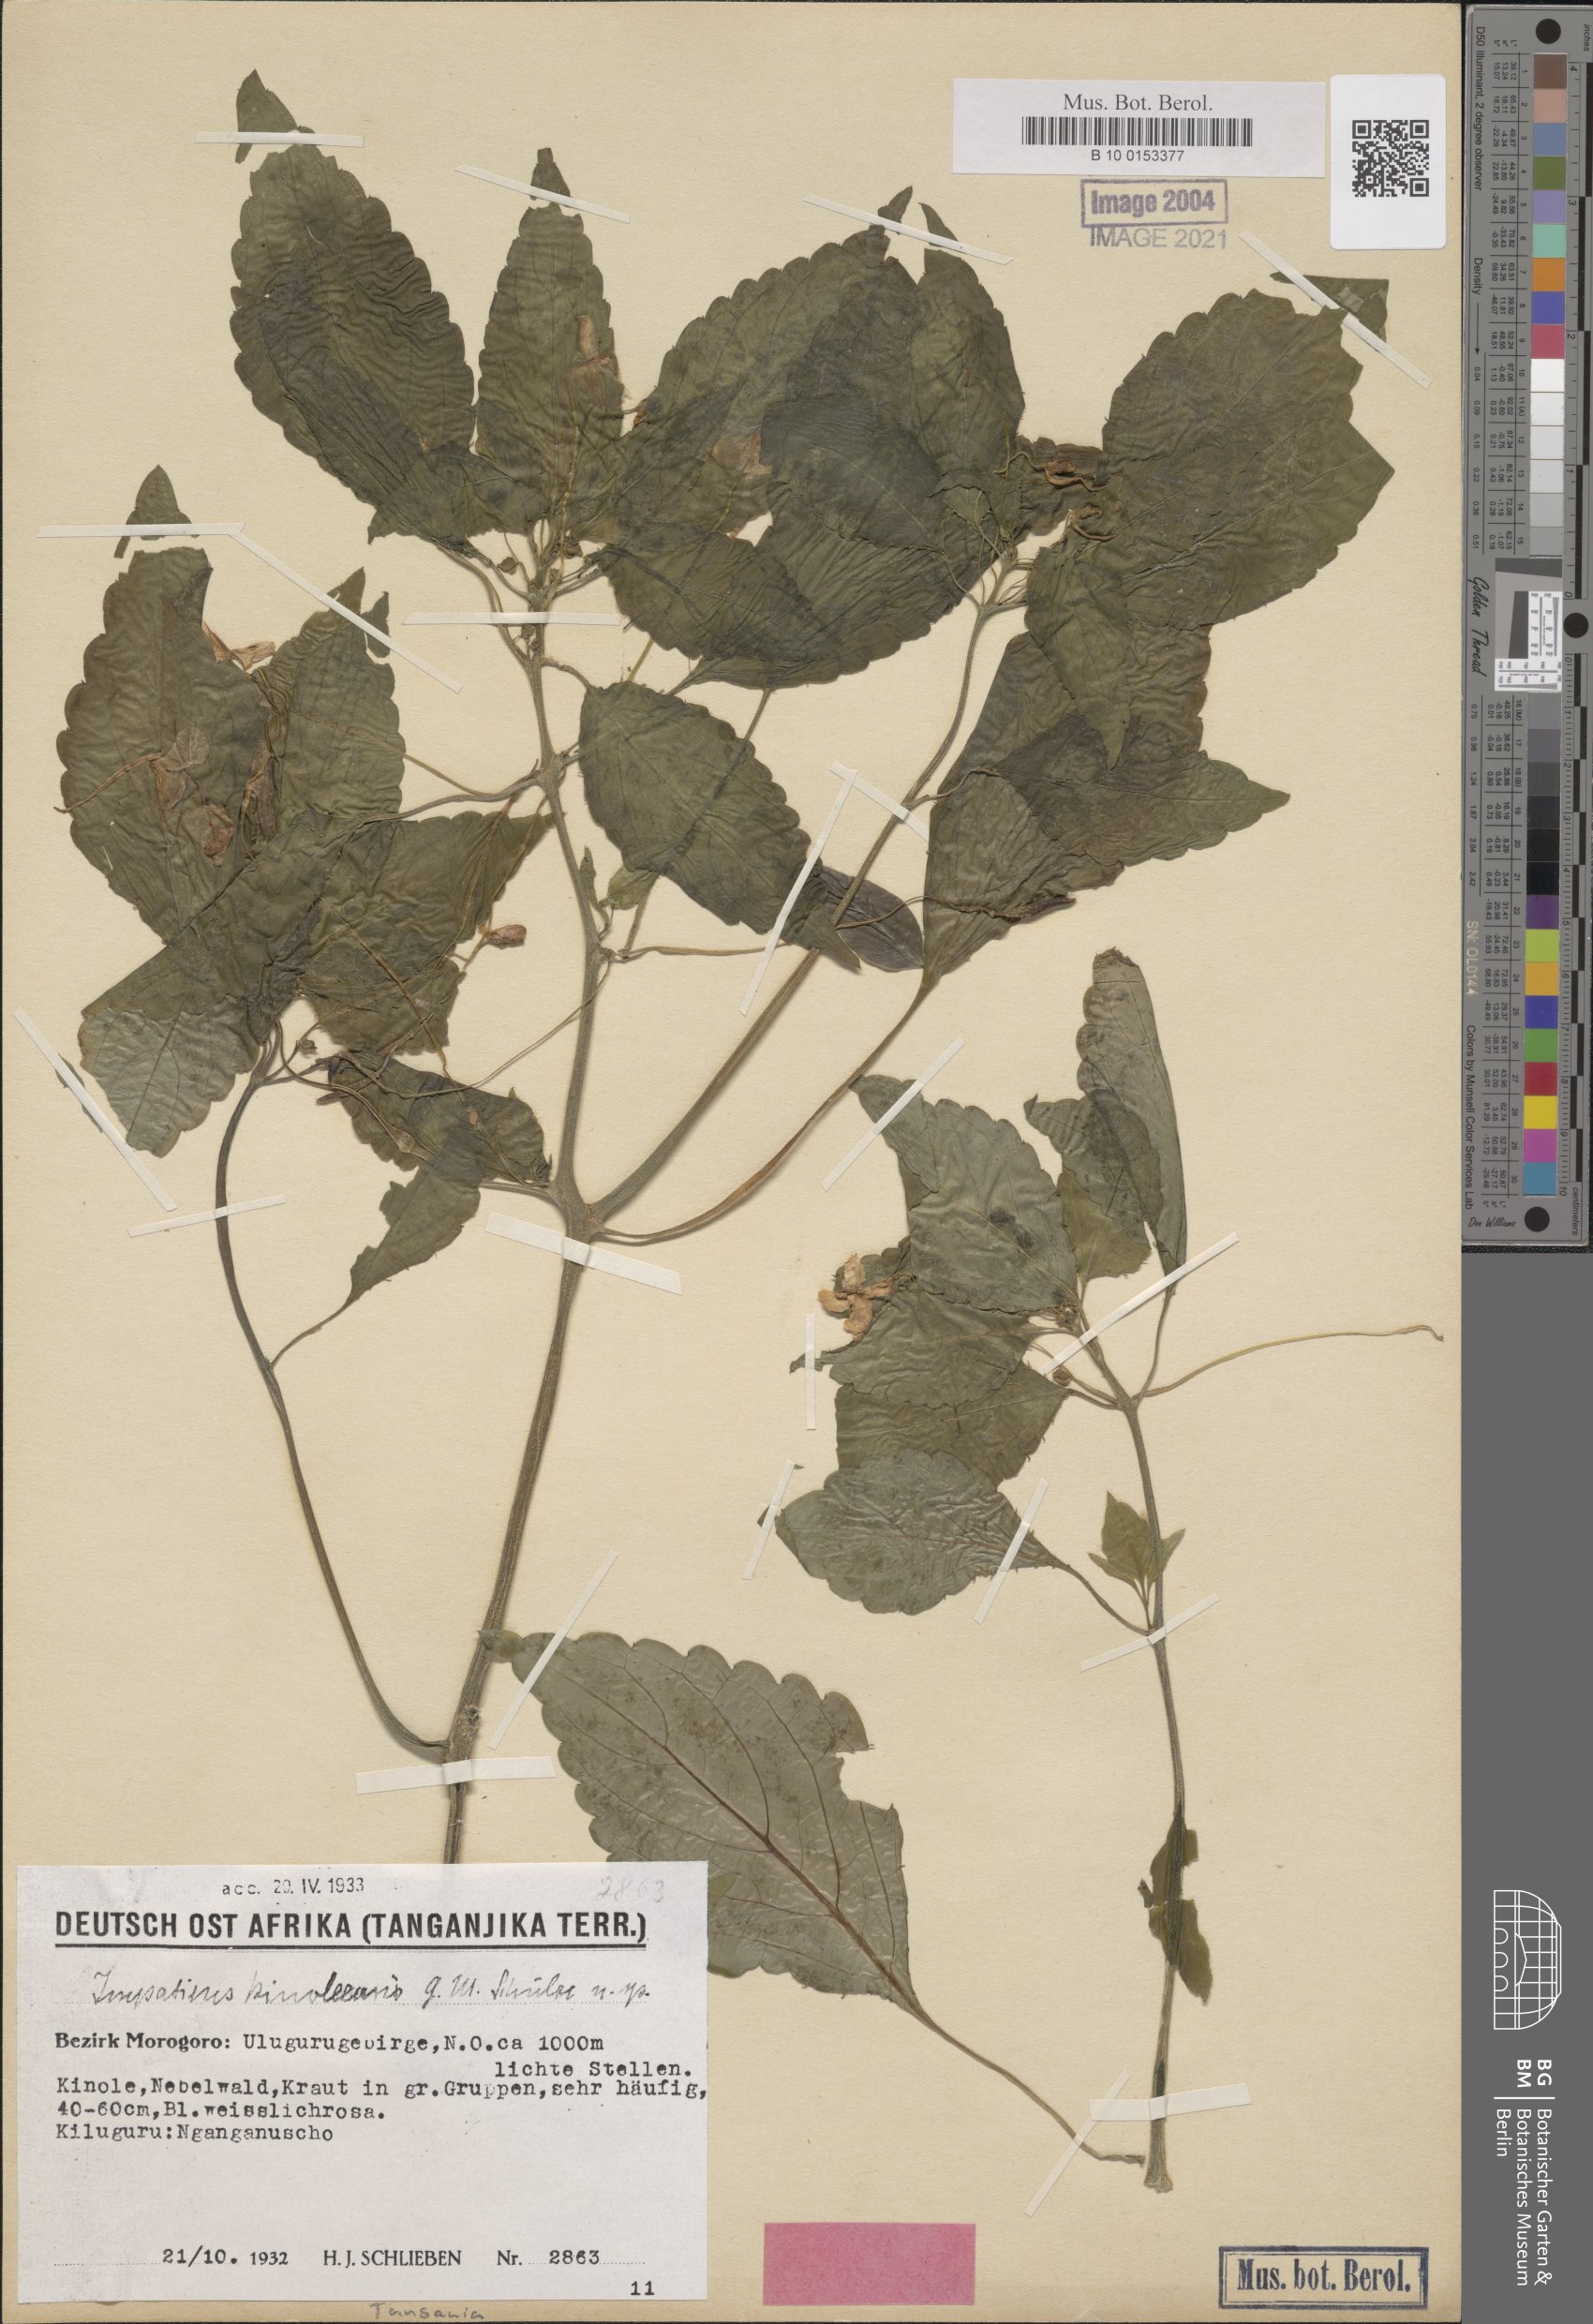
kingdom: Plantae
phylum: Tracheophyta
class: Magnoliopsida
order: Ericales
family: Balsaminaceae
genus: Impatiens
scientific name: Impatiens engleri
